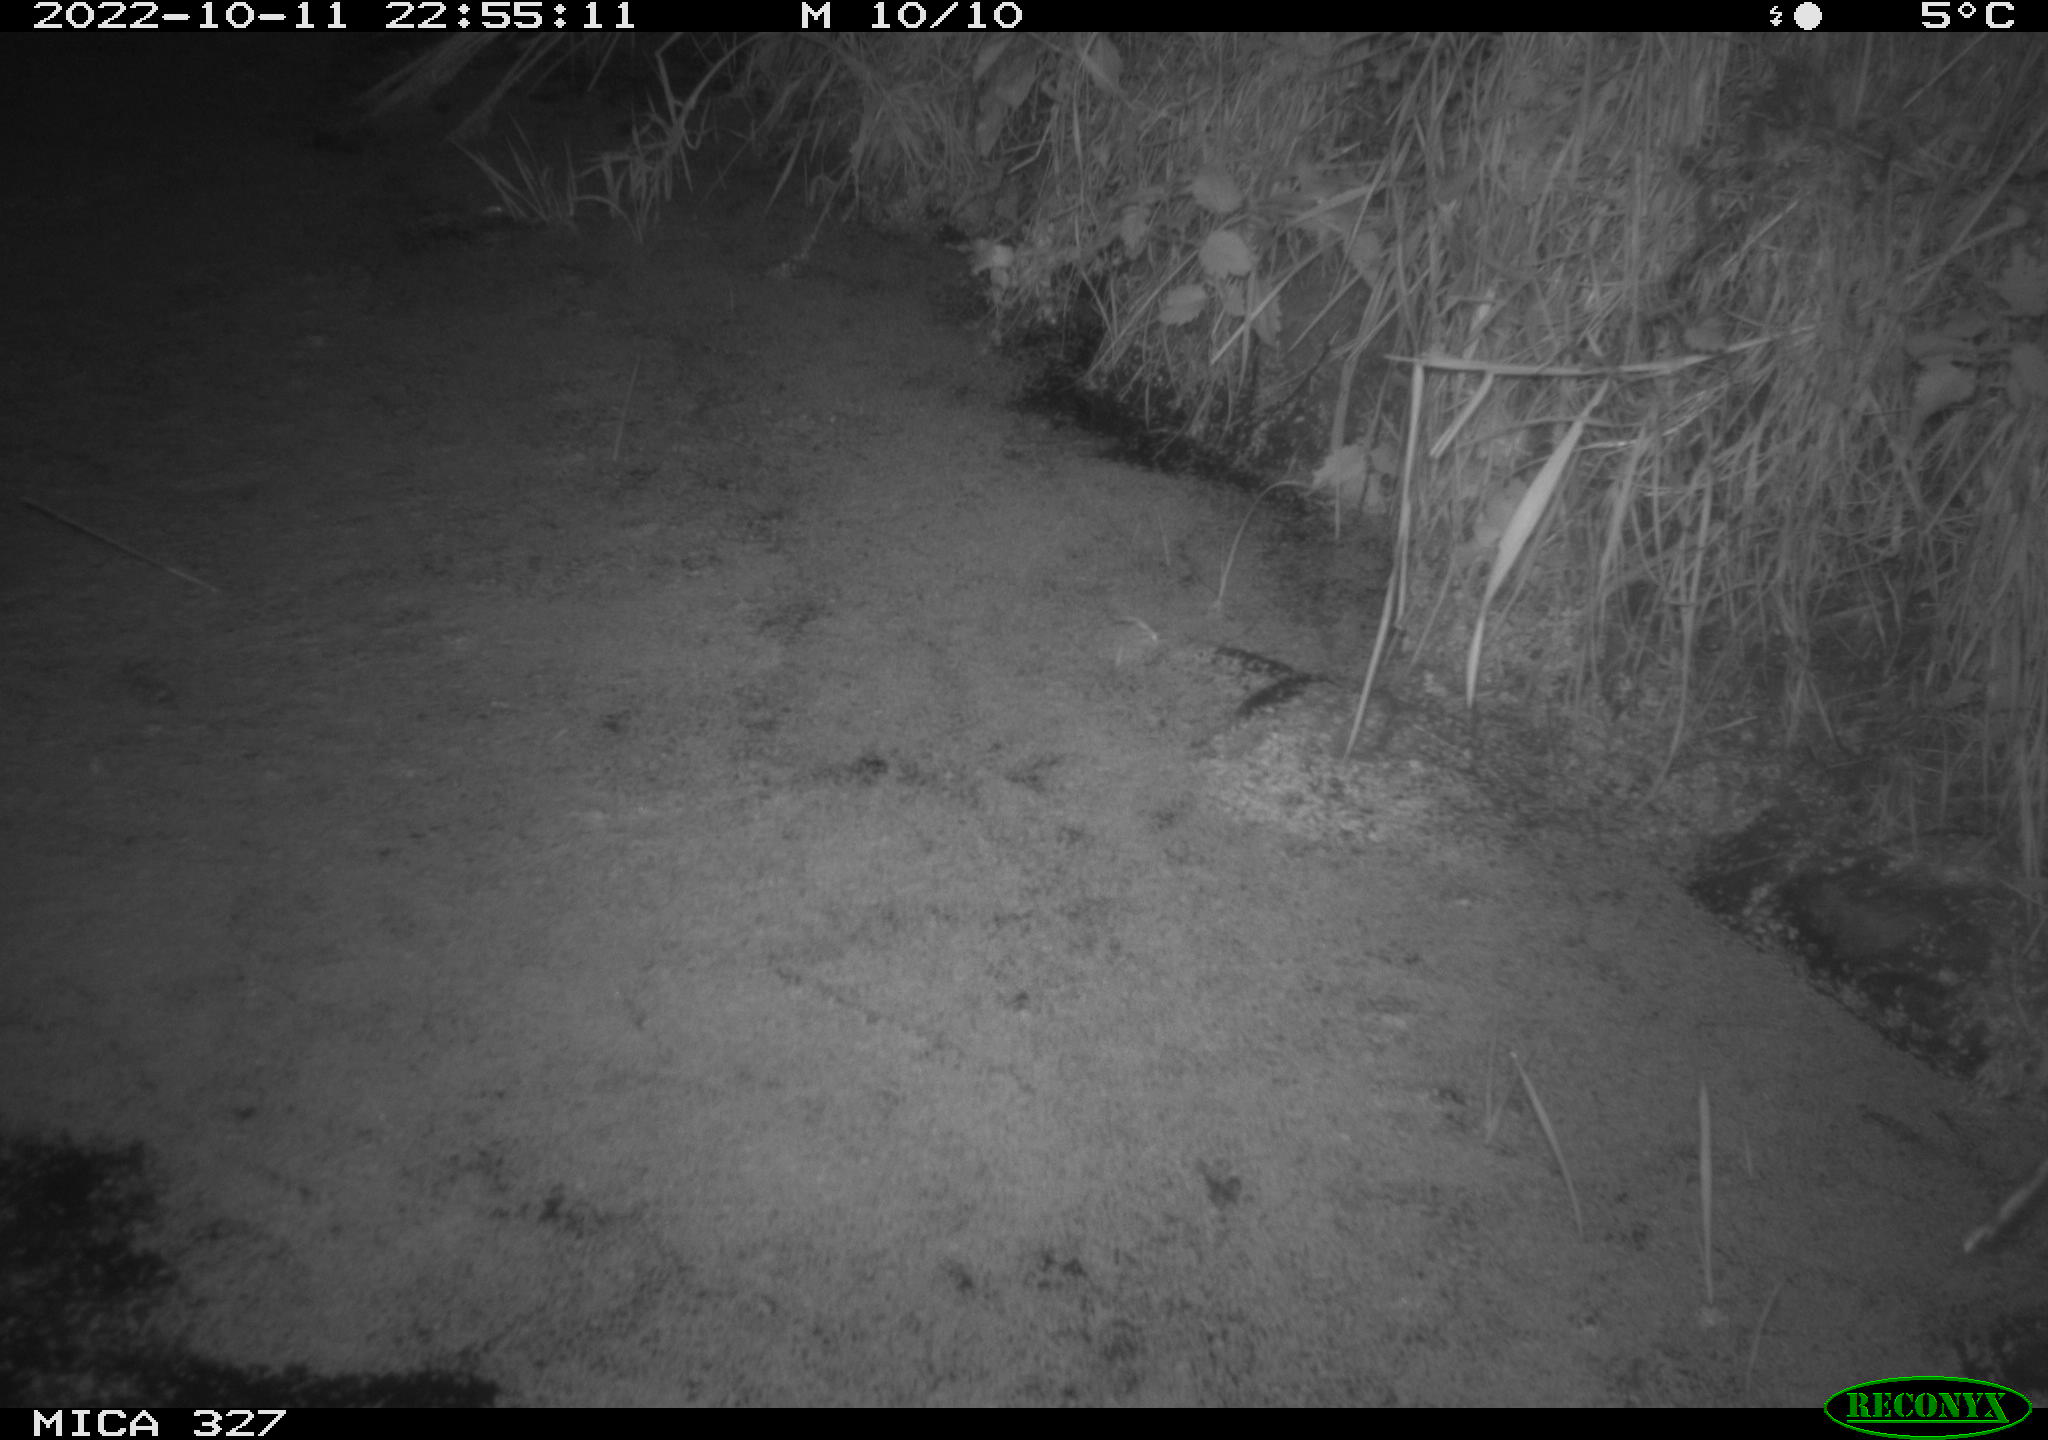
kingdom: Animalia
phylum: Chordata
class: Mammalia
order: Rodentia
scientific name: Rodentia
